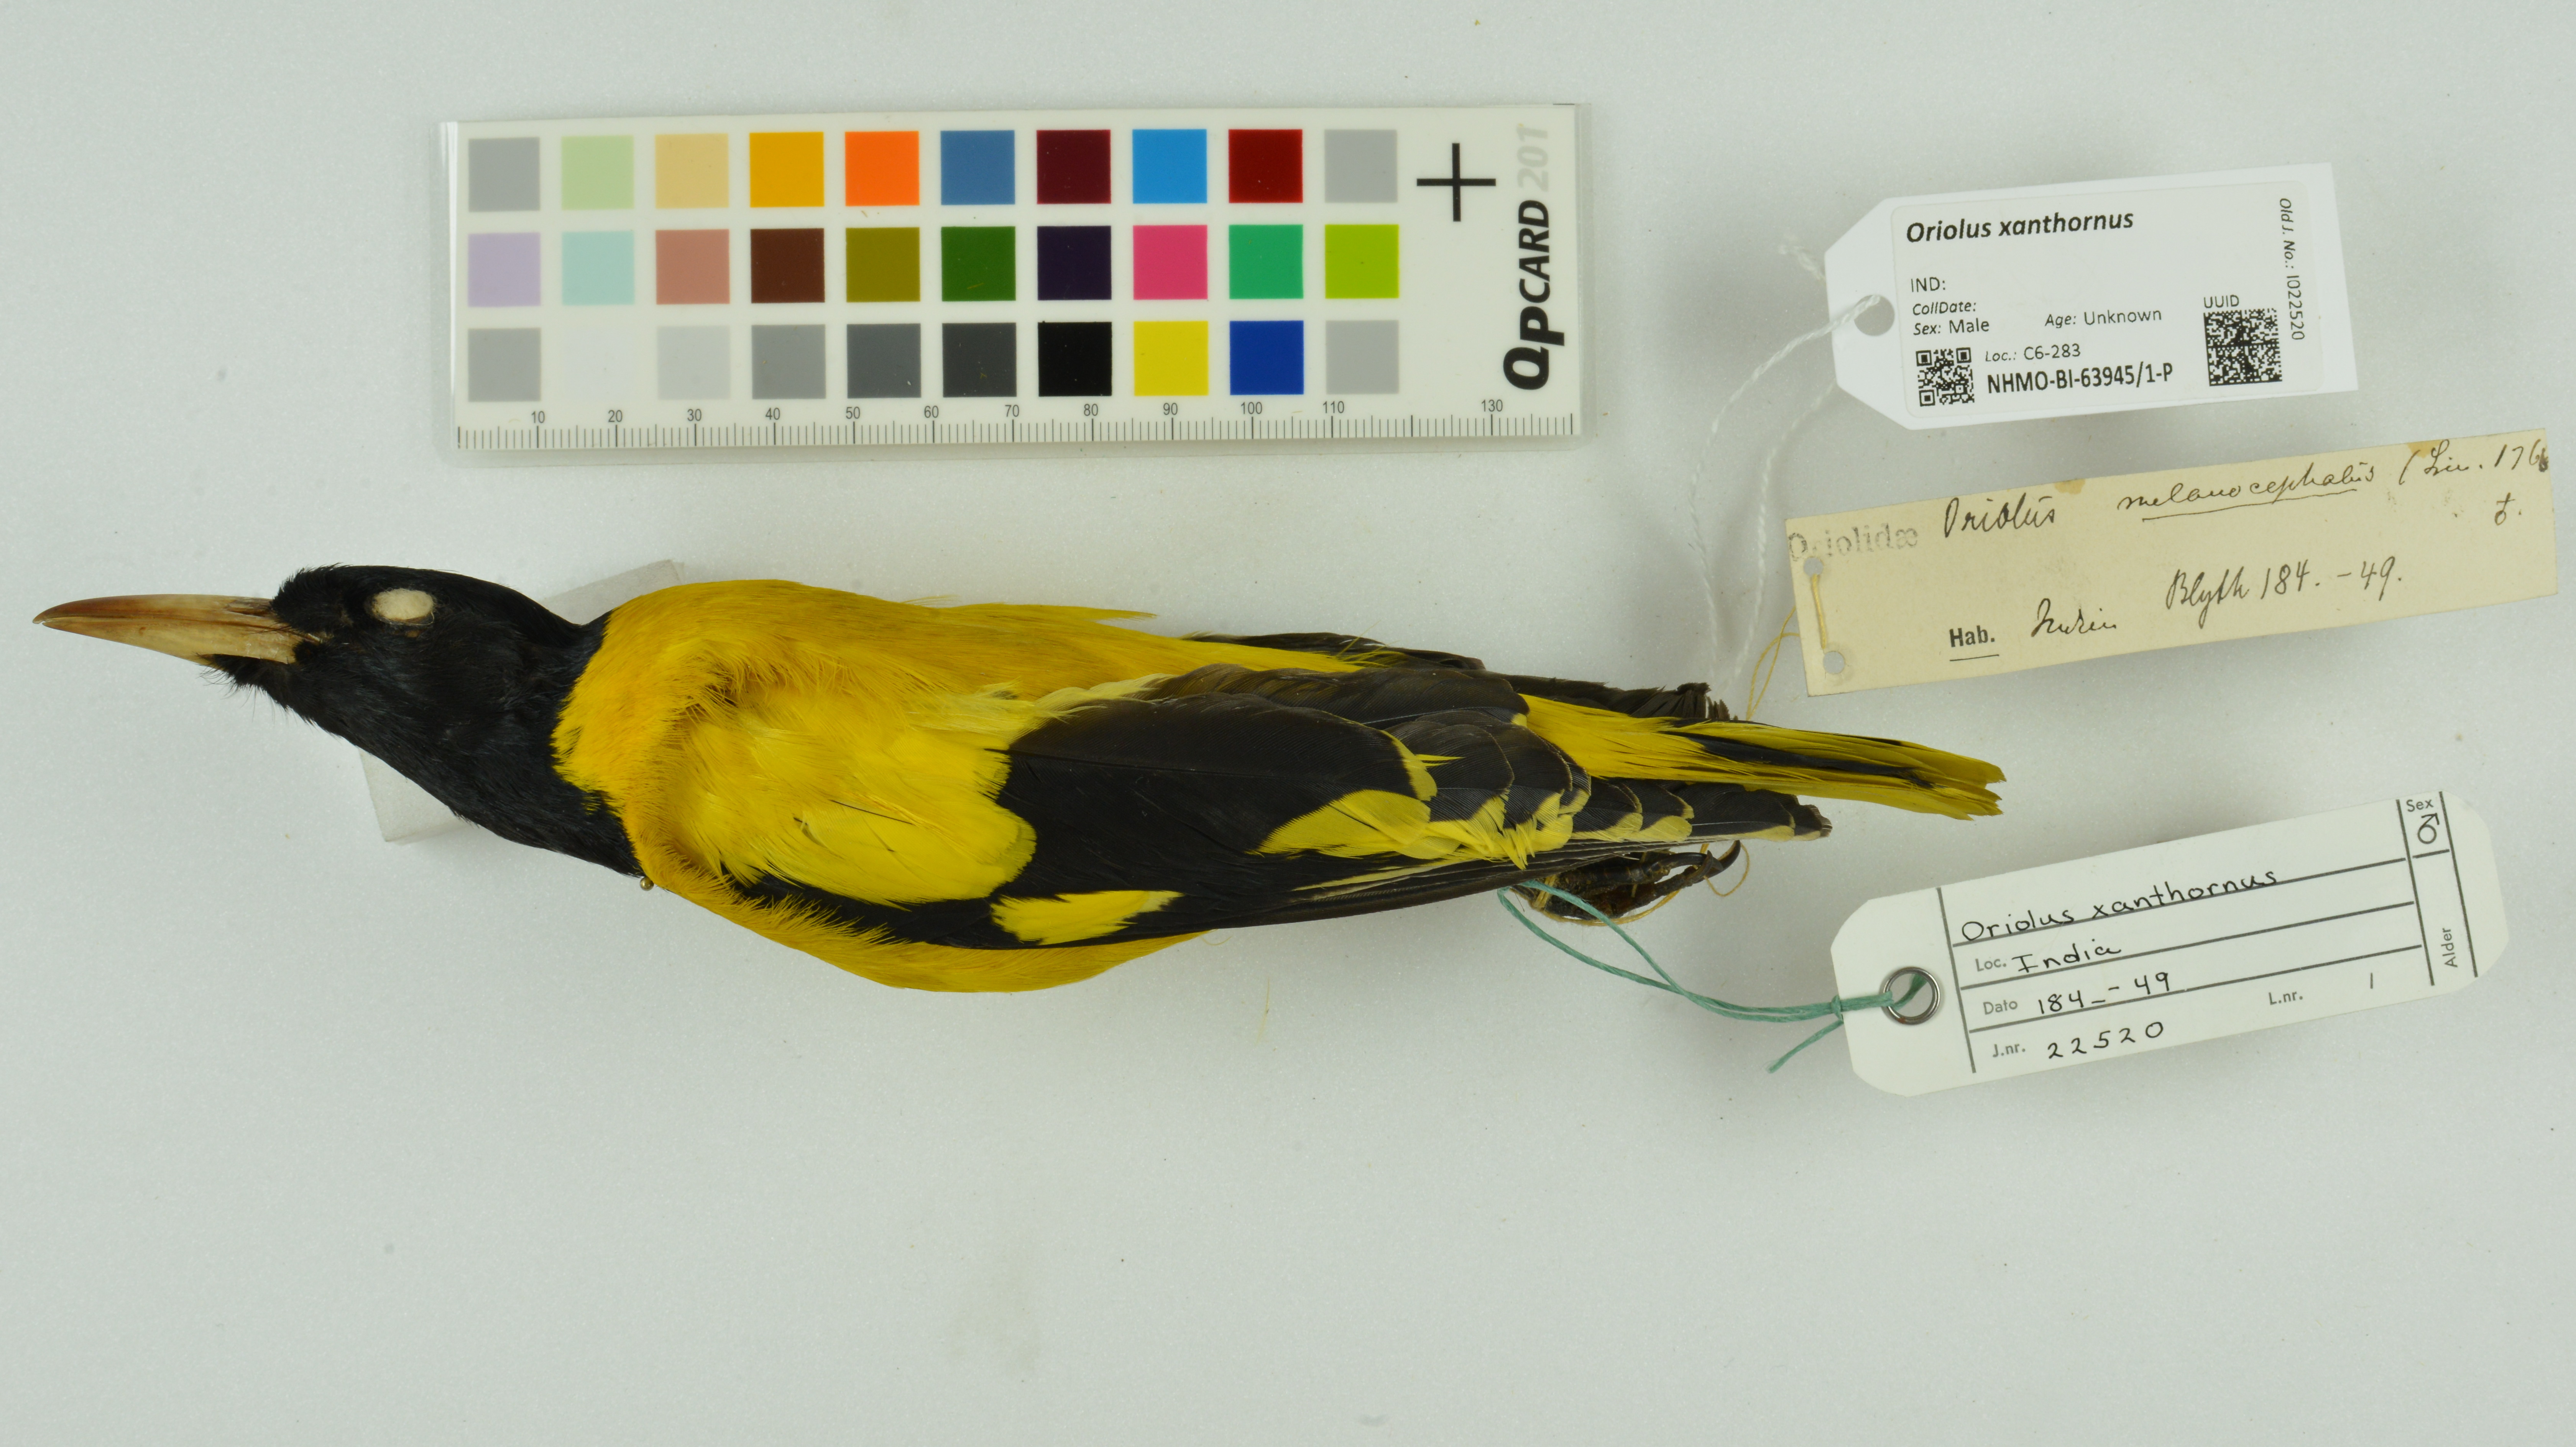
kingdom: Animalia
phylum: Chordata
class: Aves
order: Passeriformes
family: Oriolidae
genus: Oriolus
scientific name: Oriolus xanthornus
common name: Black-hooded oriole
